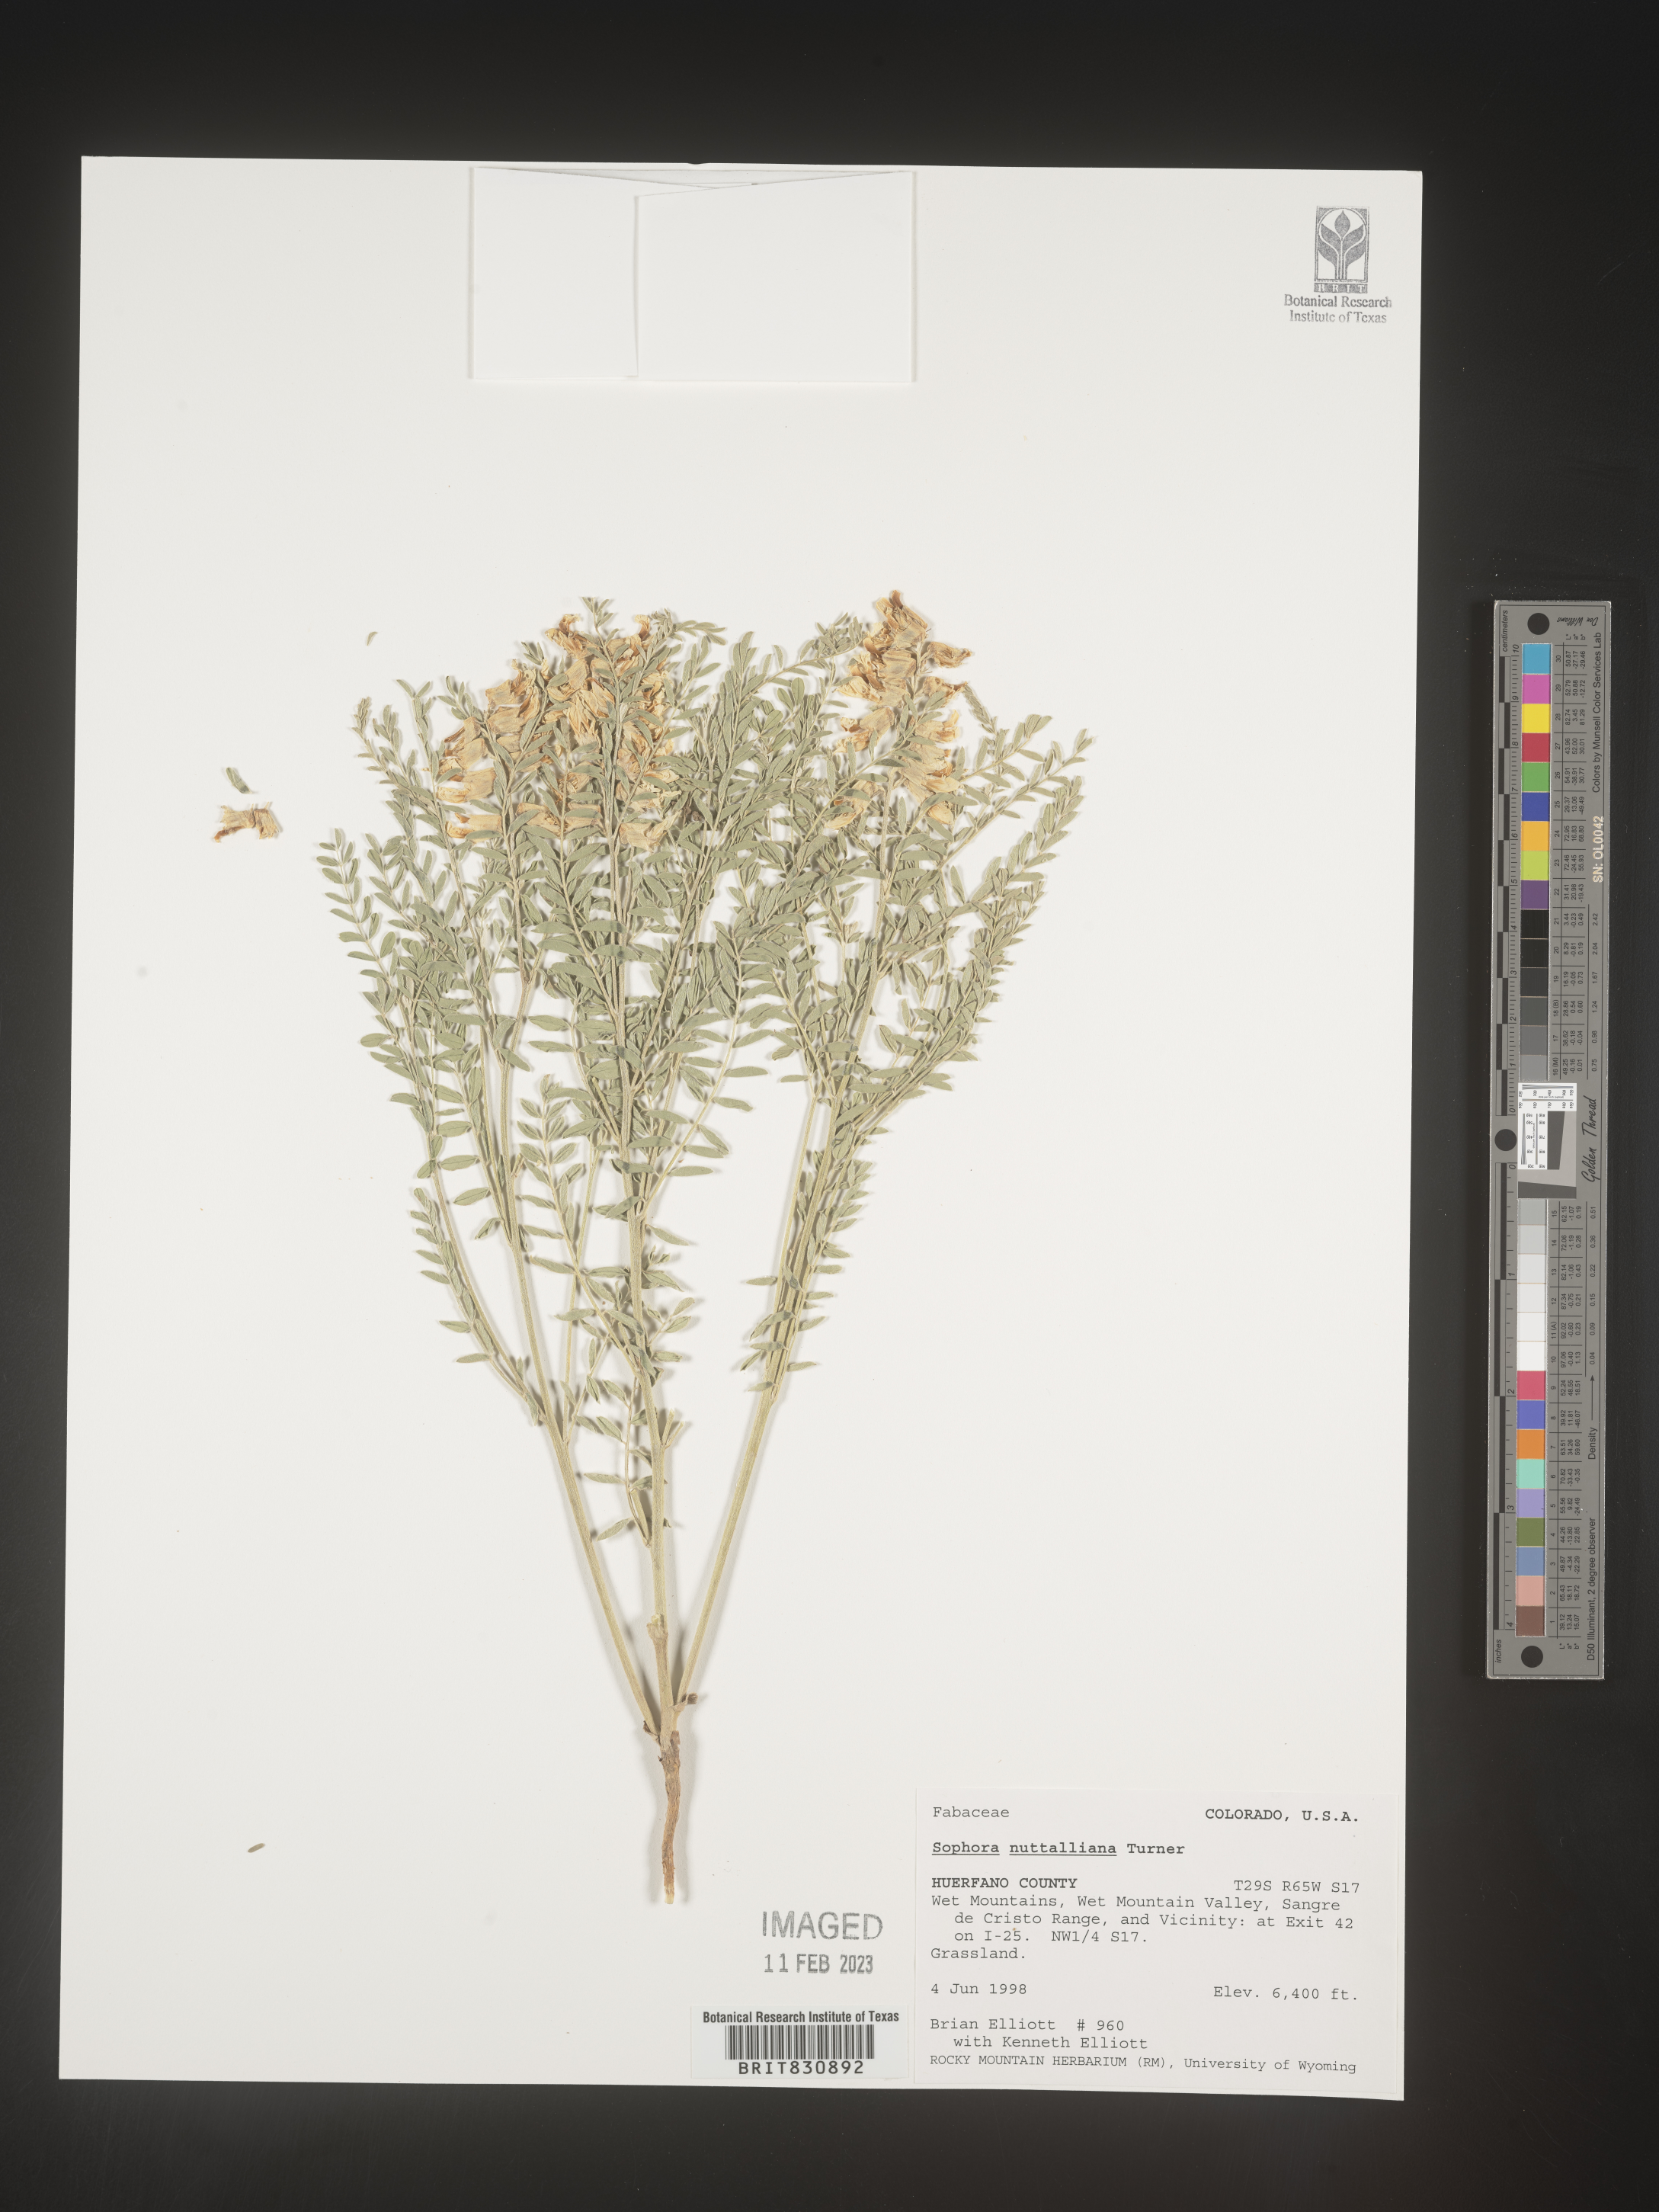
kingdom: Plantae
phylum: Tracheophyta
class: Magnoliopsida
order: Fabales
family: Fabaceae
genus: Sophora
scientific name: Sophora nuttalliana
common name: Silky sophora
